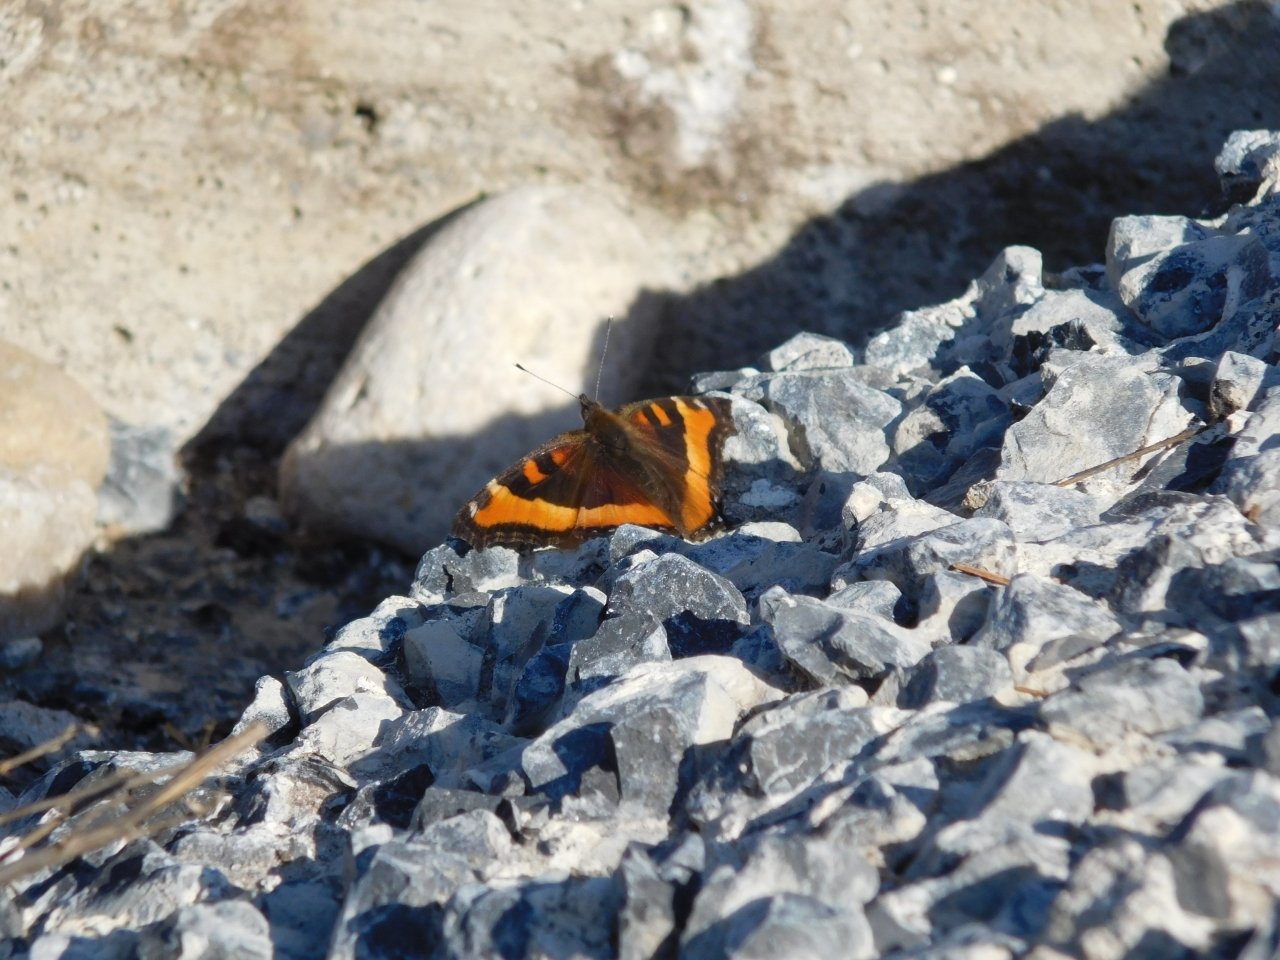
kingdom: Animalia
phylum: Arthropoda
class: Insecta
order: Lepidoptera
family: Nymphalidae
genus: Aglais
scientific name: Aglais milberti
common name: Milbert's Tortoiseshell
